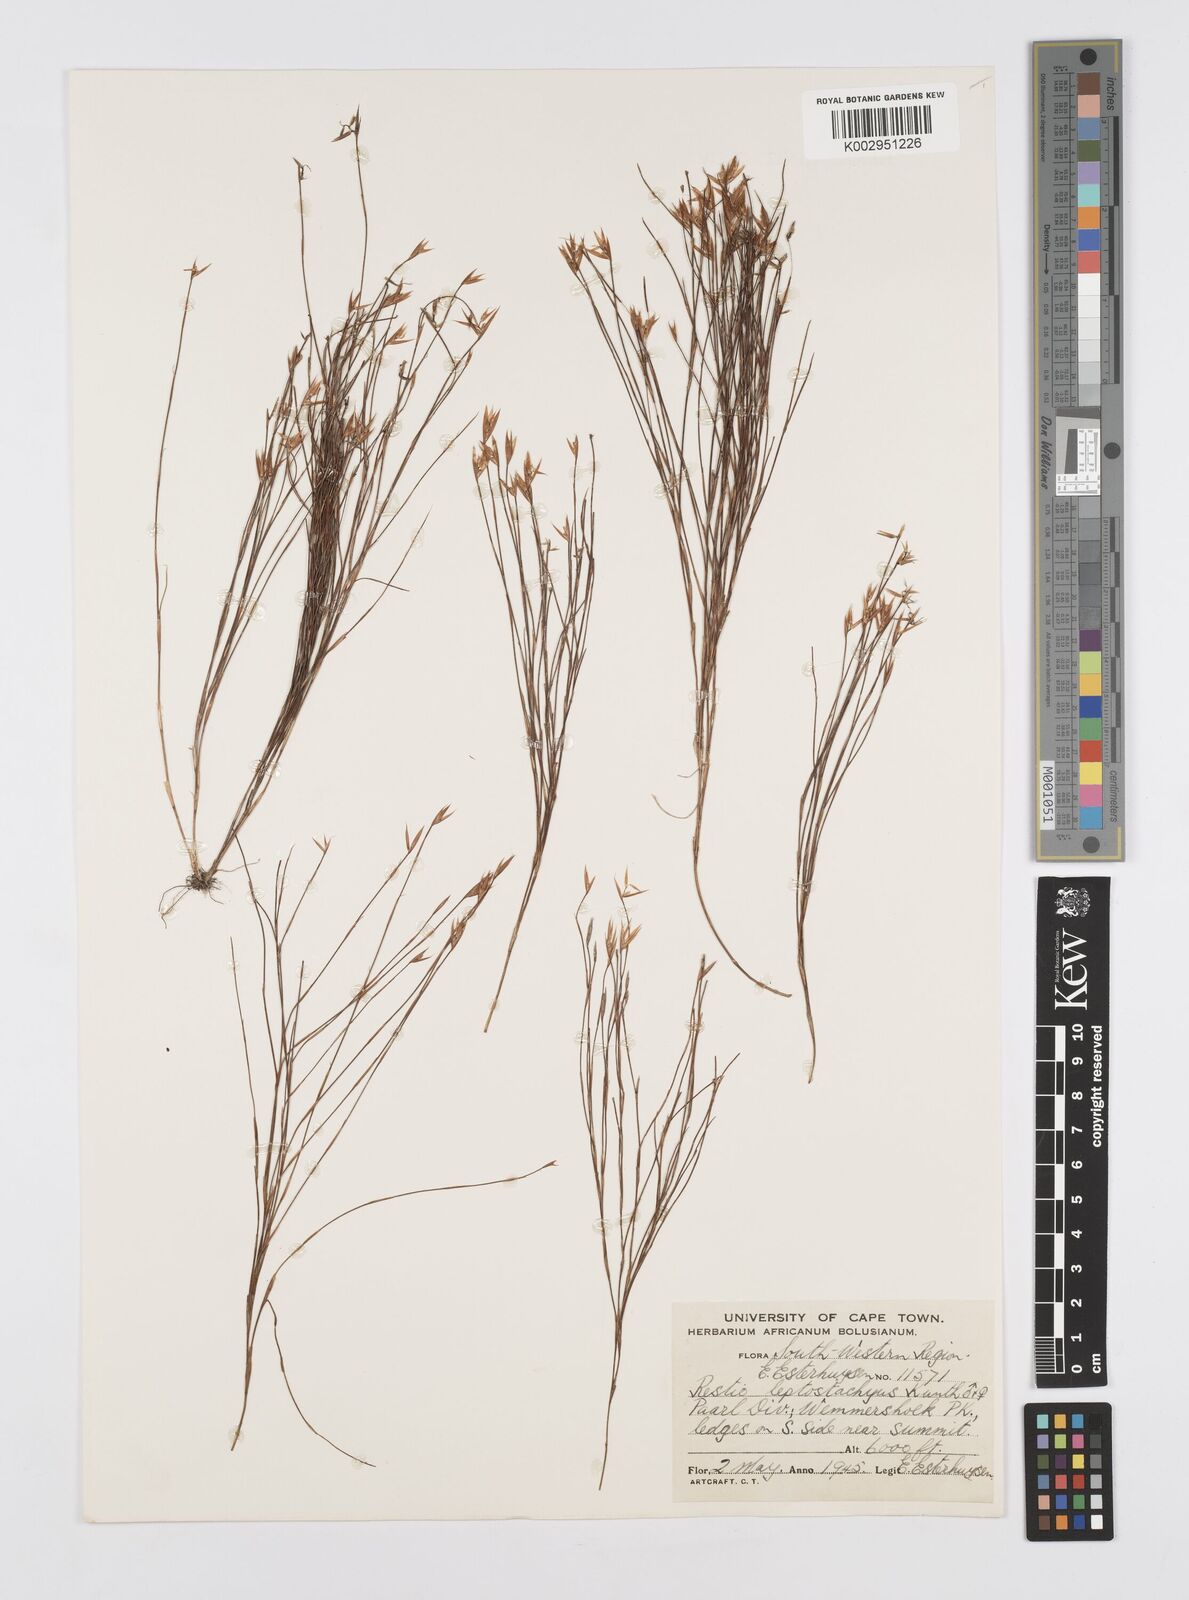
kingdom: Plantae
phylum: Tracheophyta
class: Liliopsida
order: Poales
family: Restionaceae
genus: Restio
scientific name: Restio leptostachyus
